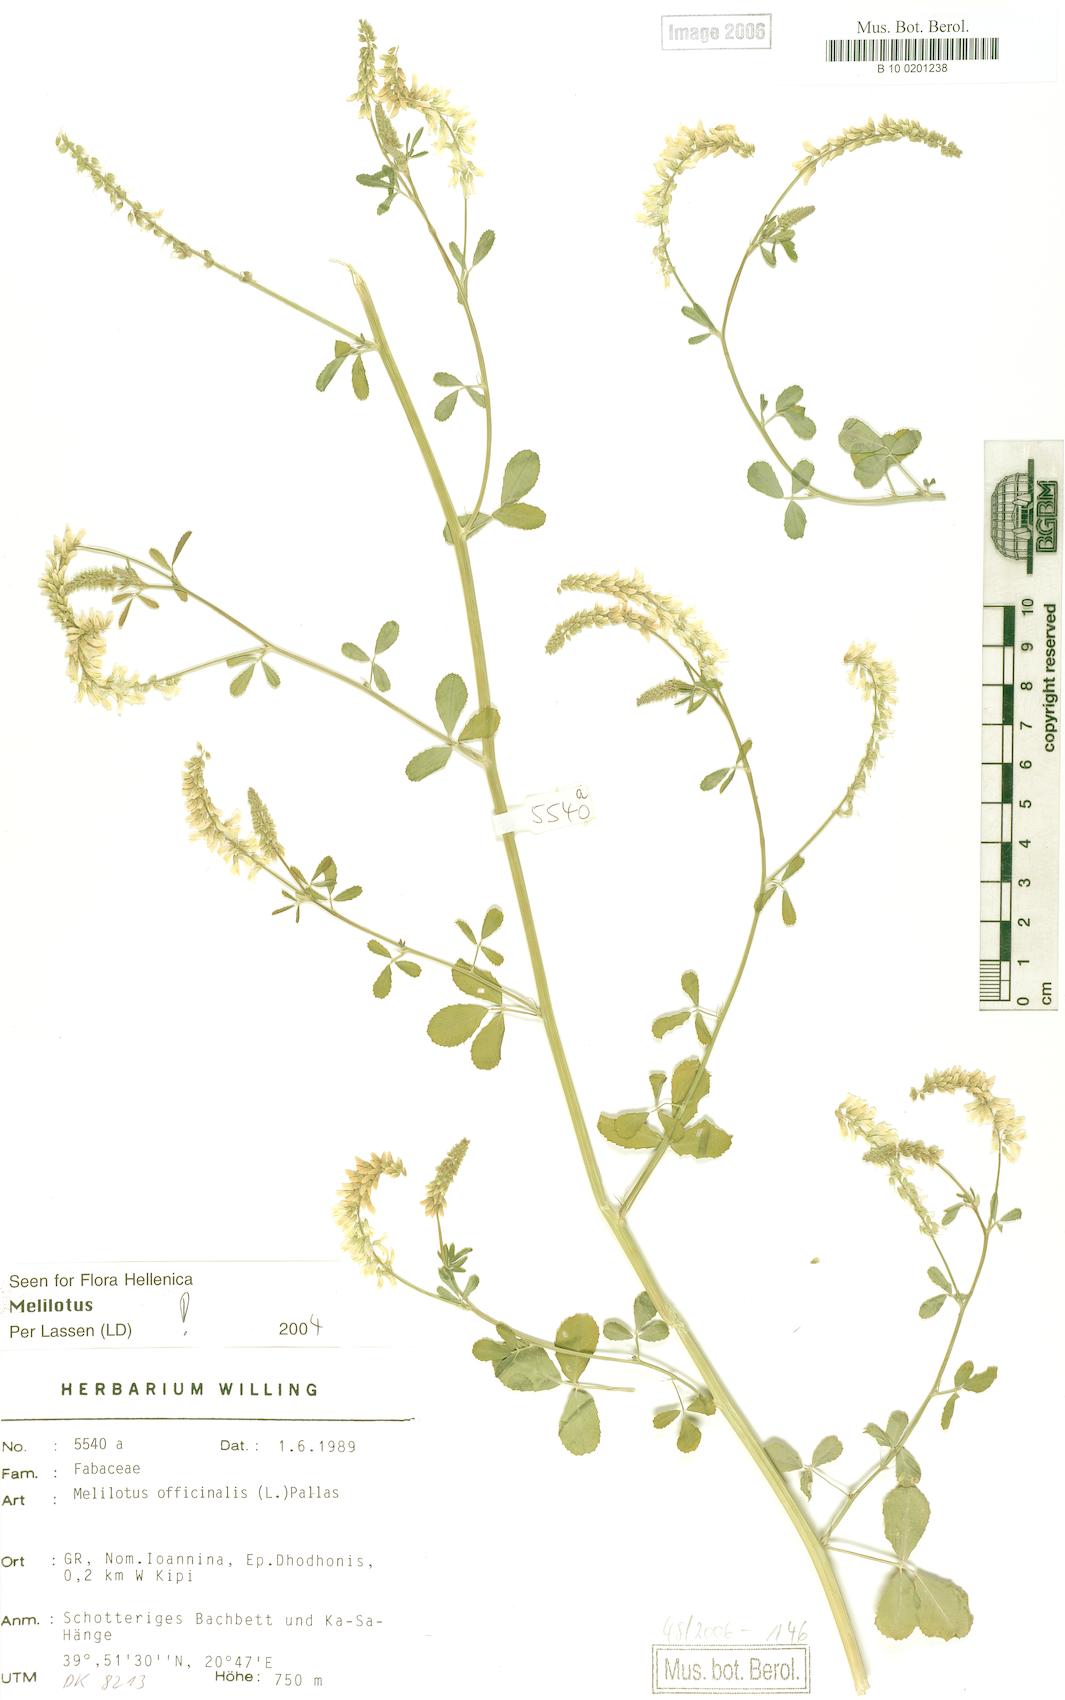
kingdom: Plantae
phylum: Tracheophyta
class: Magnoliopsida
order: Fabales
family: Fabaceae
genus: Melilotus
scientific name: Melilotus officinalis
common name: Sweetclover
